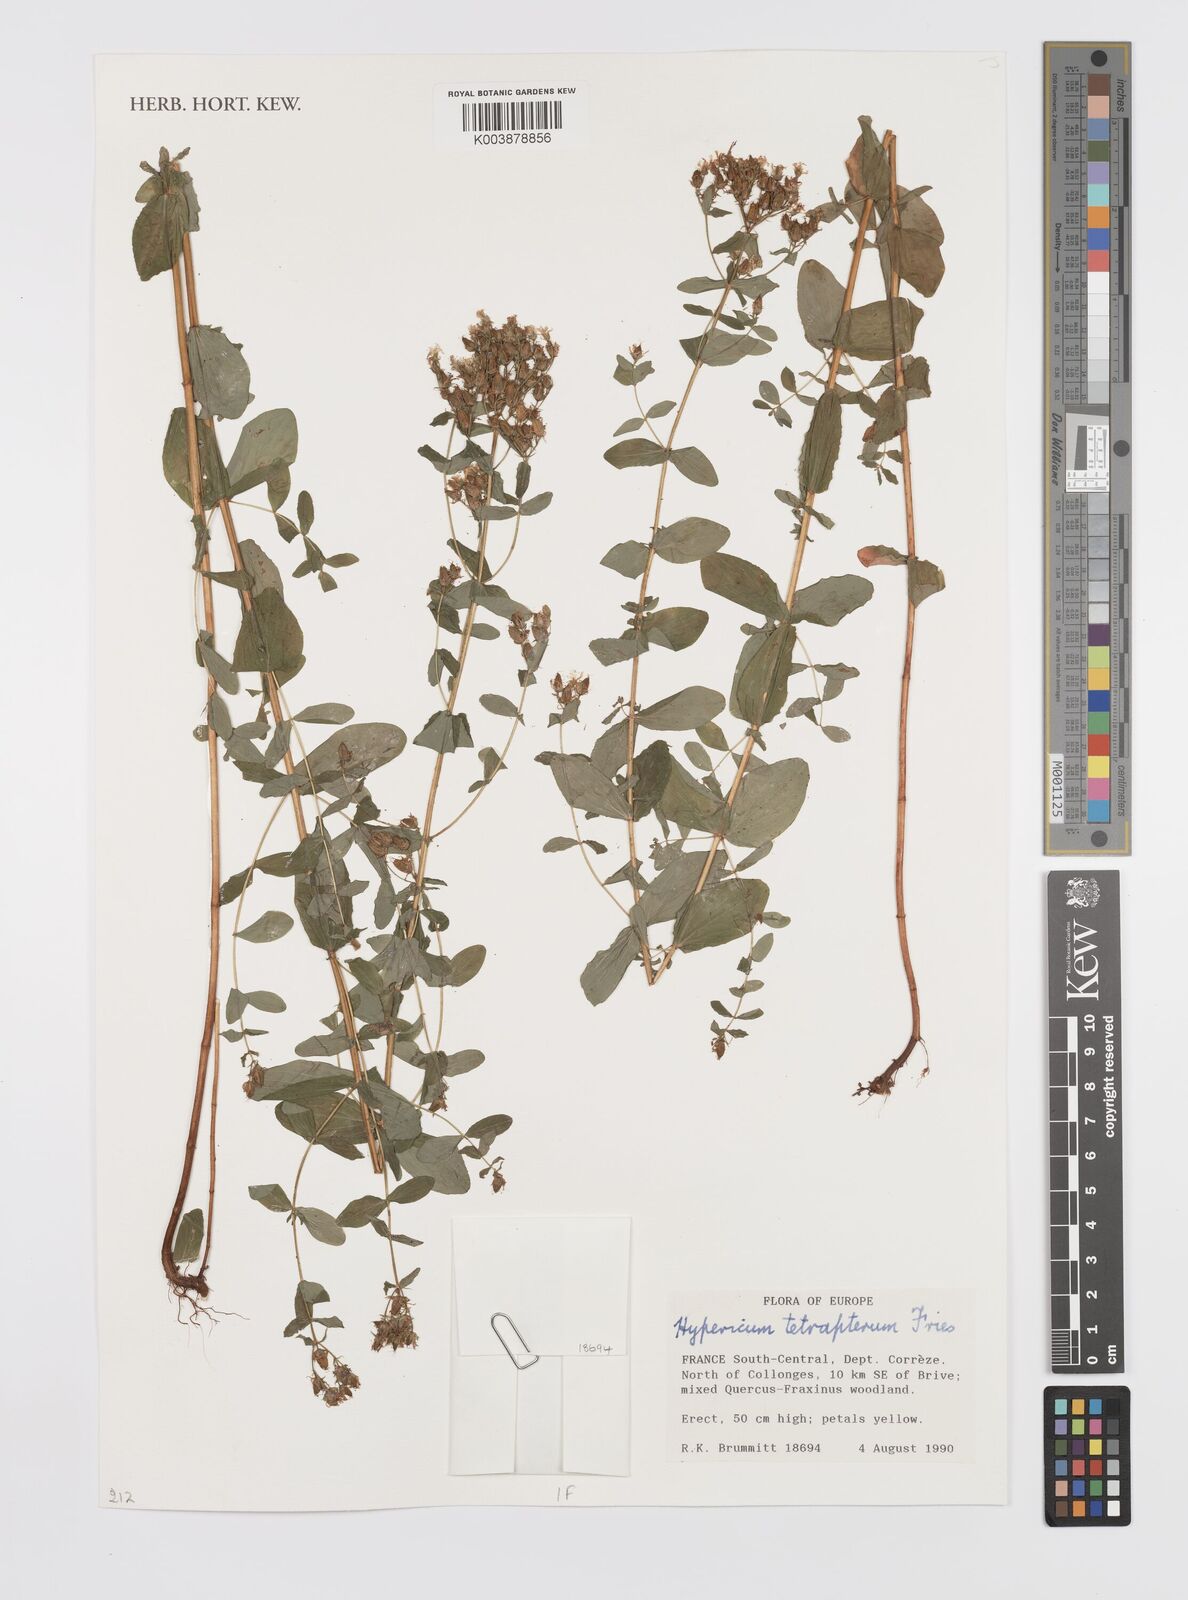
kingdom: Plantae
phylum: Tracheophyta
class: Magnoliopsida
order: Malpighiales
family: Hypericaceae
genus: Hypericum
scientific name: Hypericum tetrapterum
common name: Square-stalked st. john's-wort
